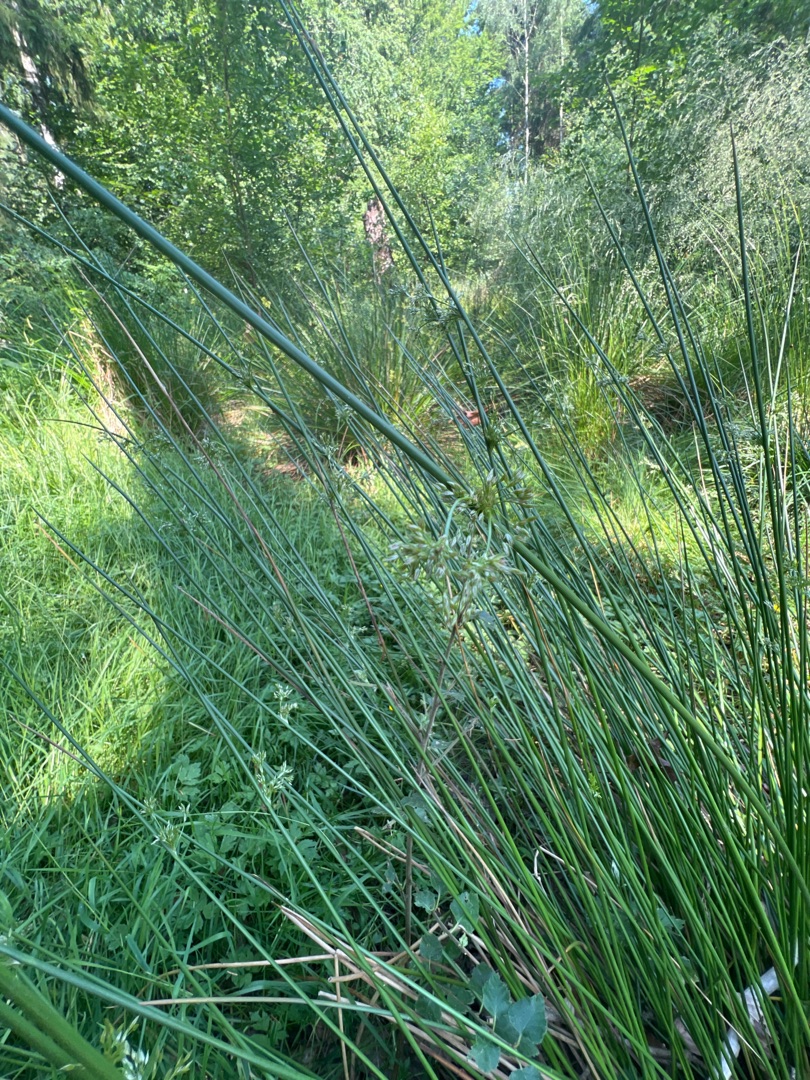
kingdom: Plantae
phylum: Tracheophyta
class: Liliopsida
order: Poales
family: Juncaceae
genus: Juncus
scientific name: Juncus effusus
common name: Lyse-siv
